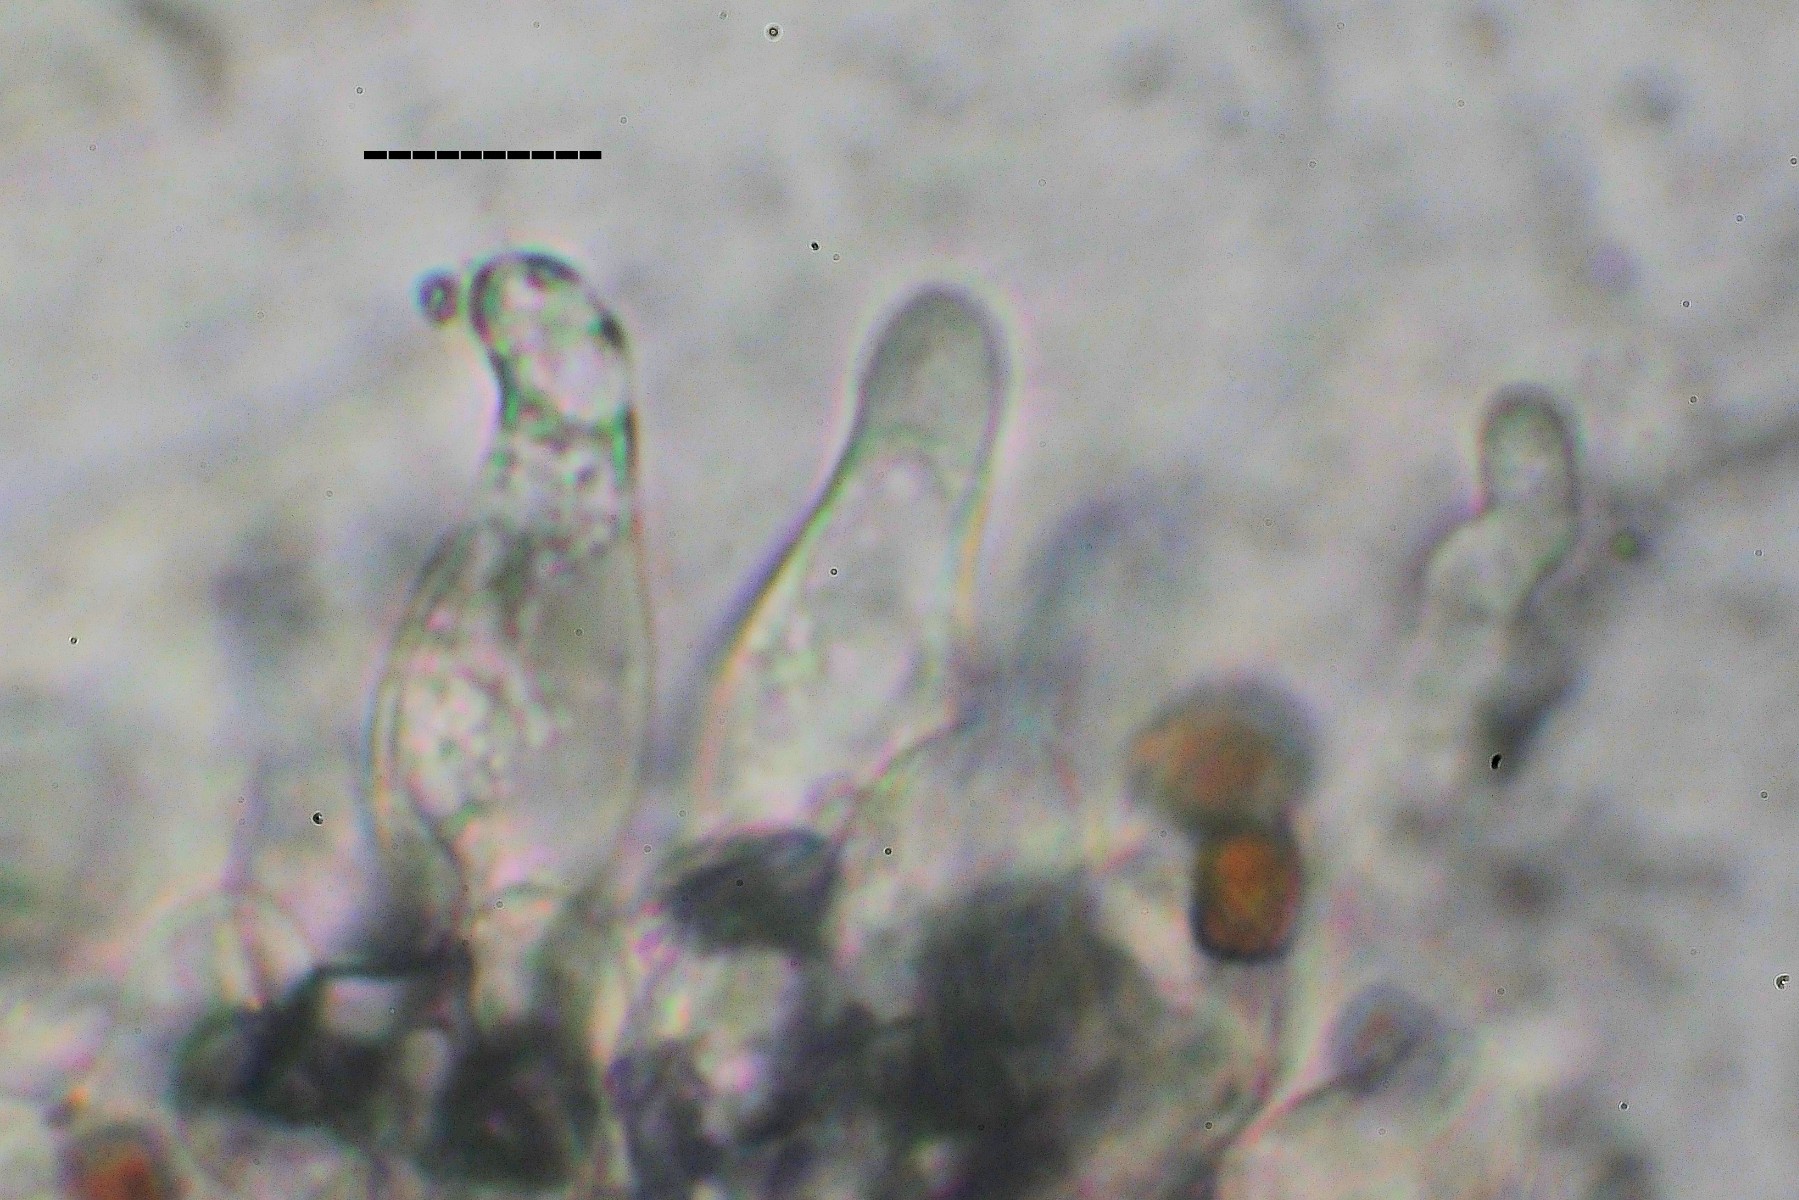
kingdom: Fungi
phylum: Basidiomycota
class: Agaricomycetes
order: Agaricales
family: Psathyrellaceae
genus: Psathyrella
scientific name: Psathyrella cotonea
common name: skællet mørkhat
